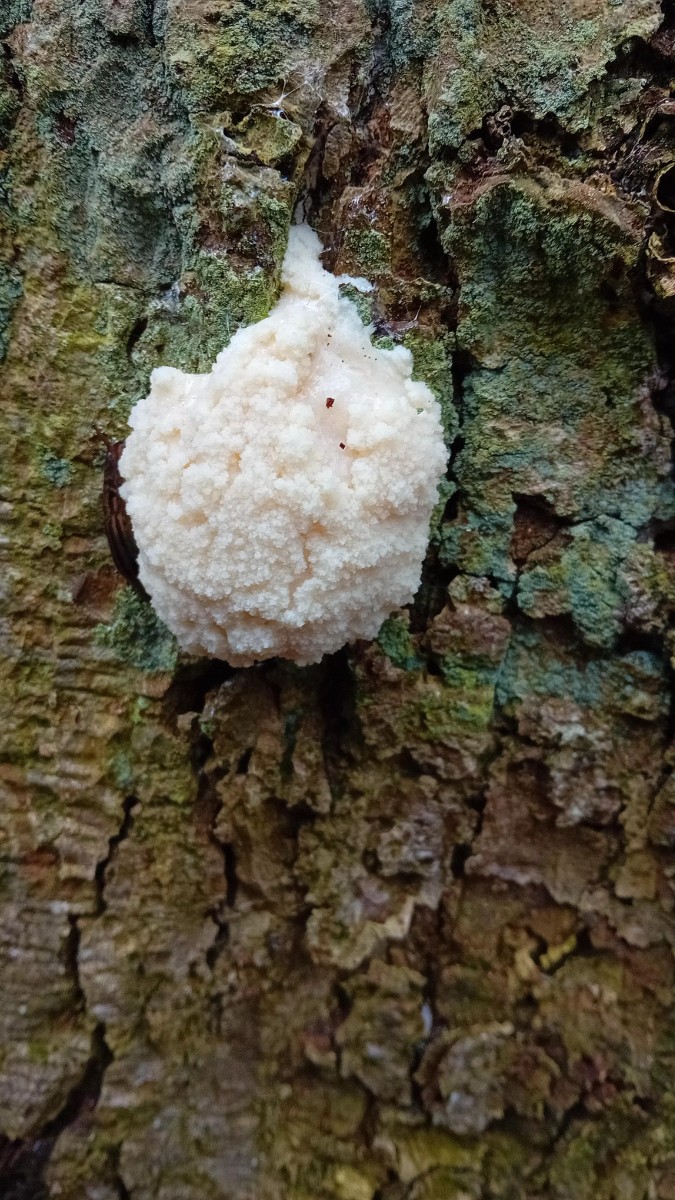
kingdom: Protozoa
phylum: Mycetozoa
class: Myxomycetes
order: Cribrariales
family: Tubiferaceae
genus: Reticularia
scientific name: Reticularia
